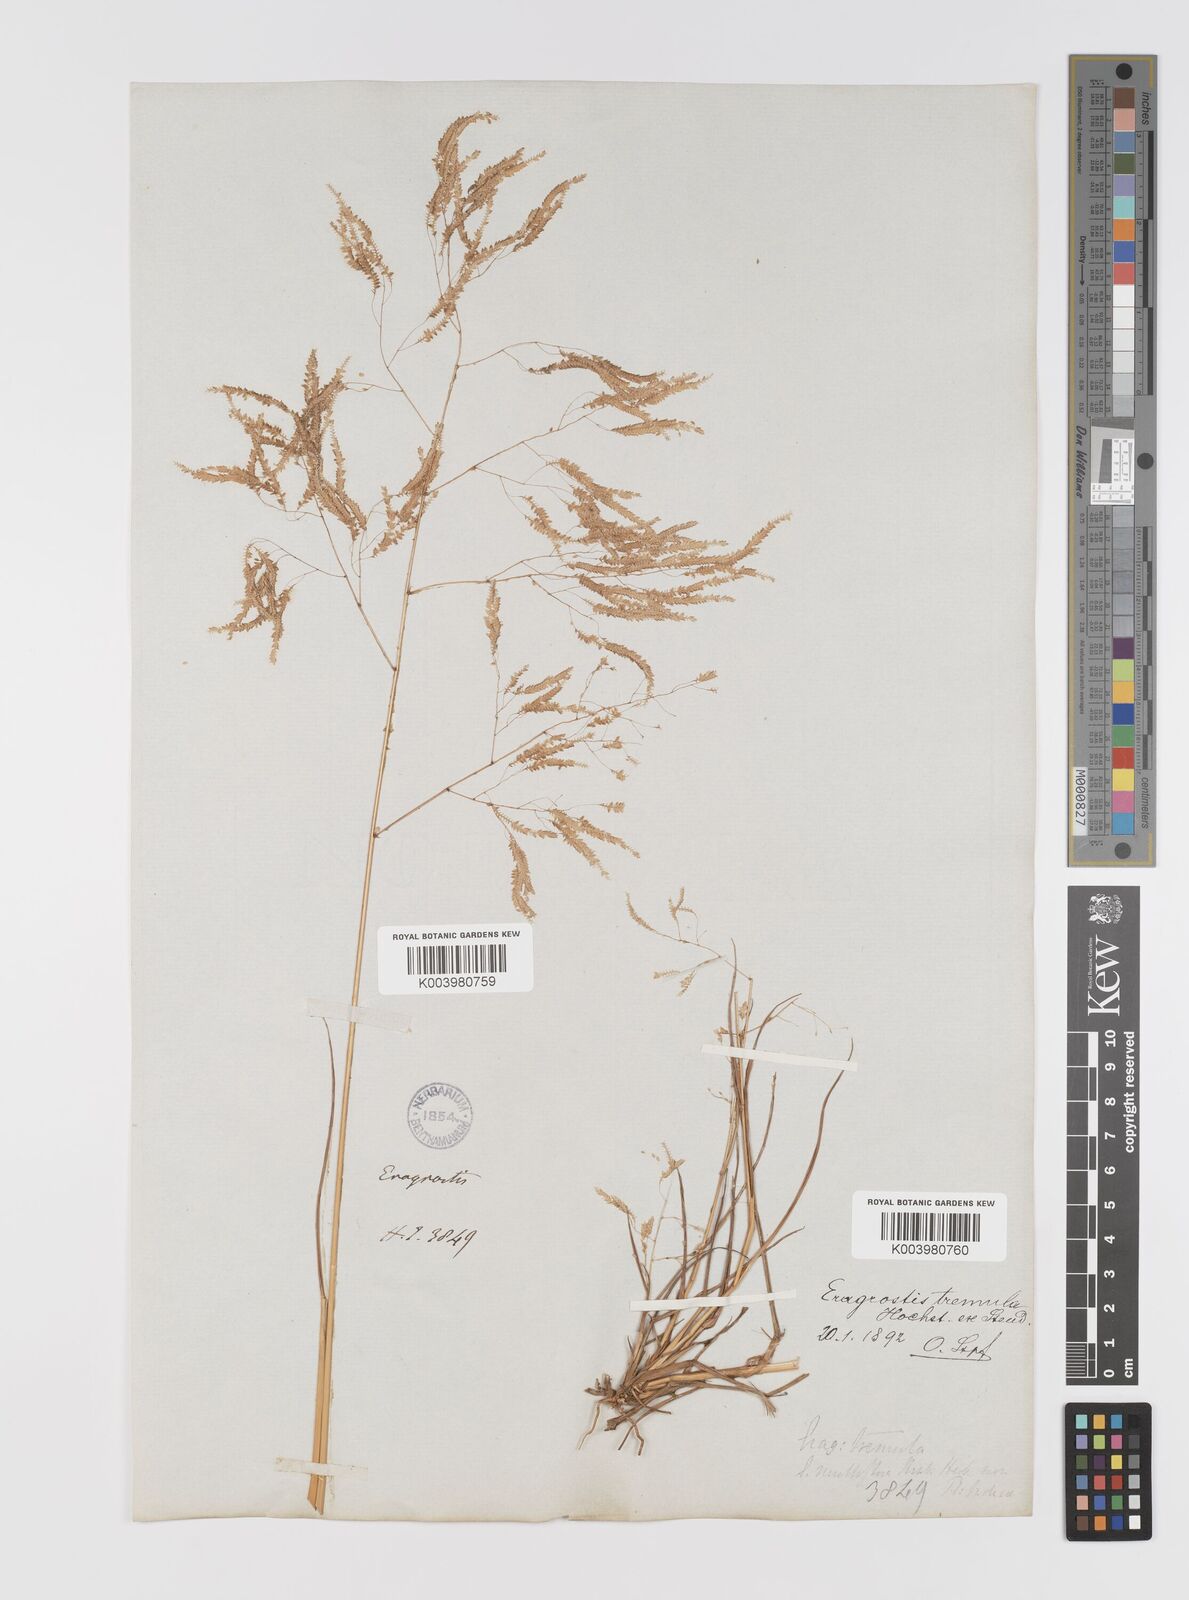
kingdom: Plantae
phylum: Tracheophyta
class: Liliopsida
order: Poales
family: Poaceae
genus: Eragrostis
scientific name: Eragrostis tremula
